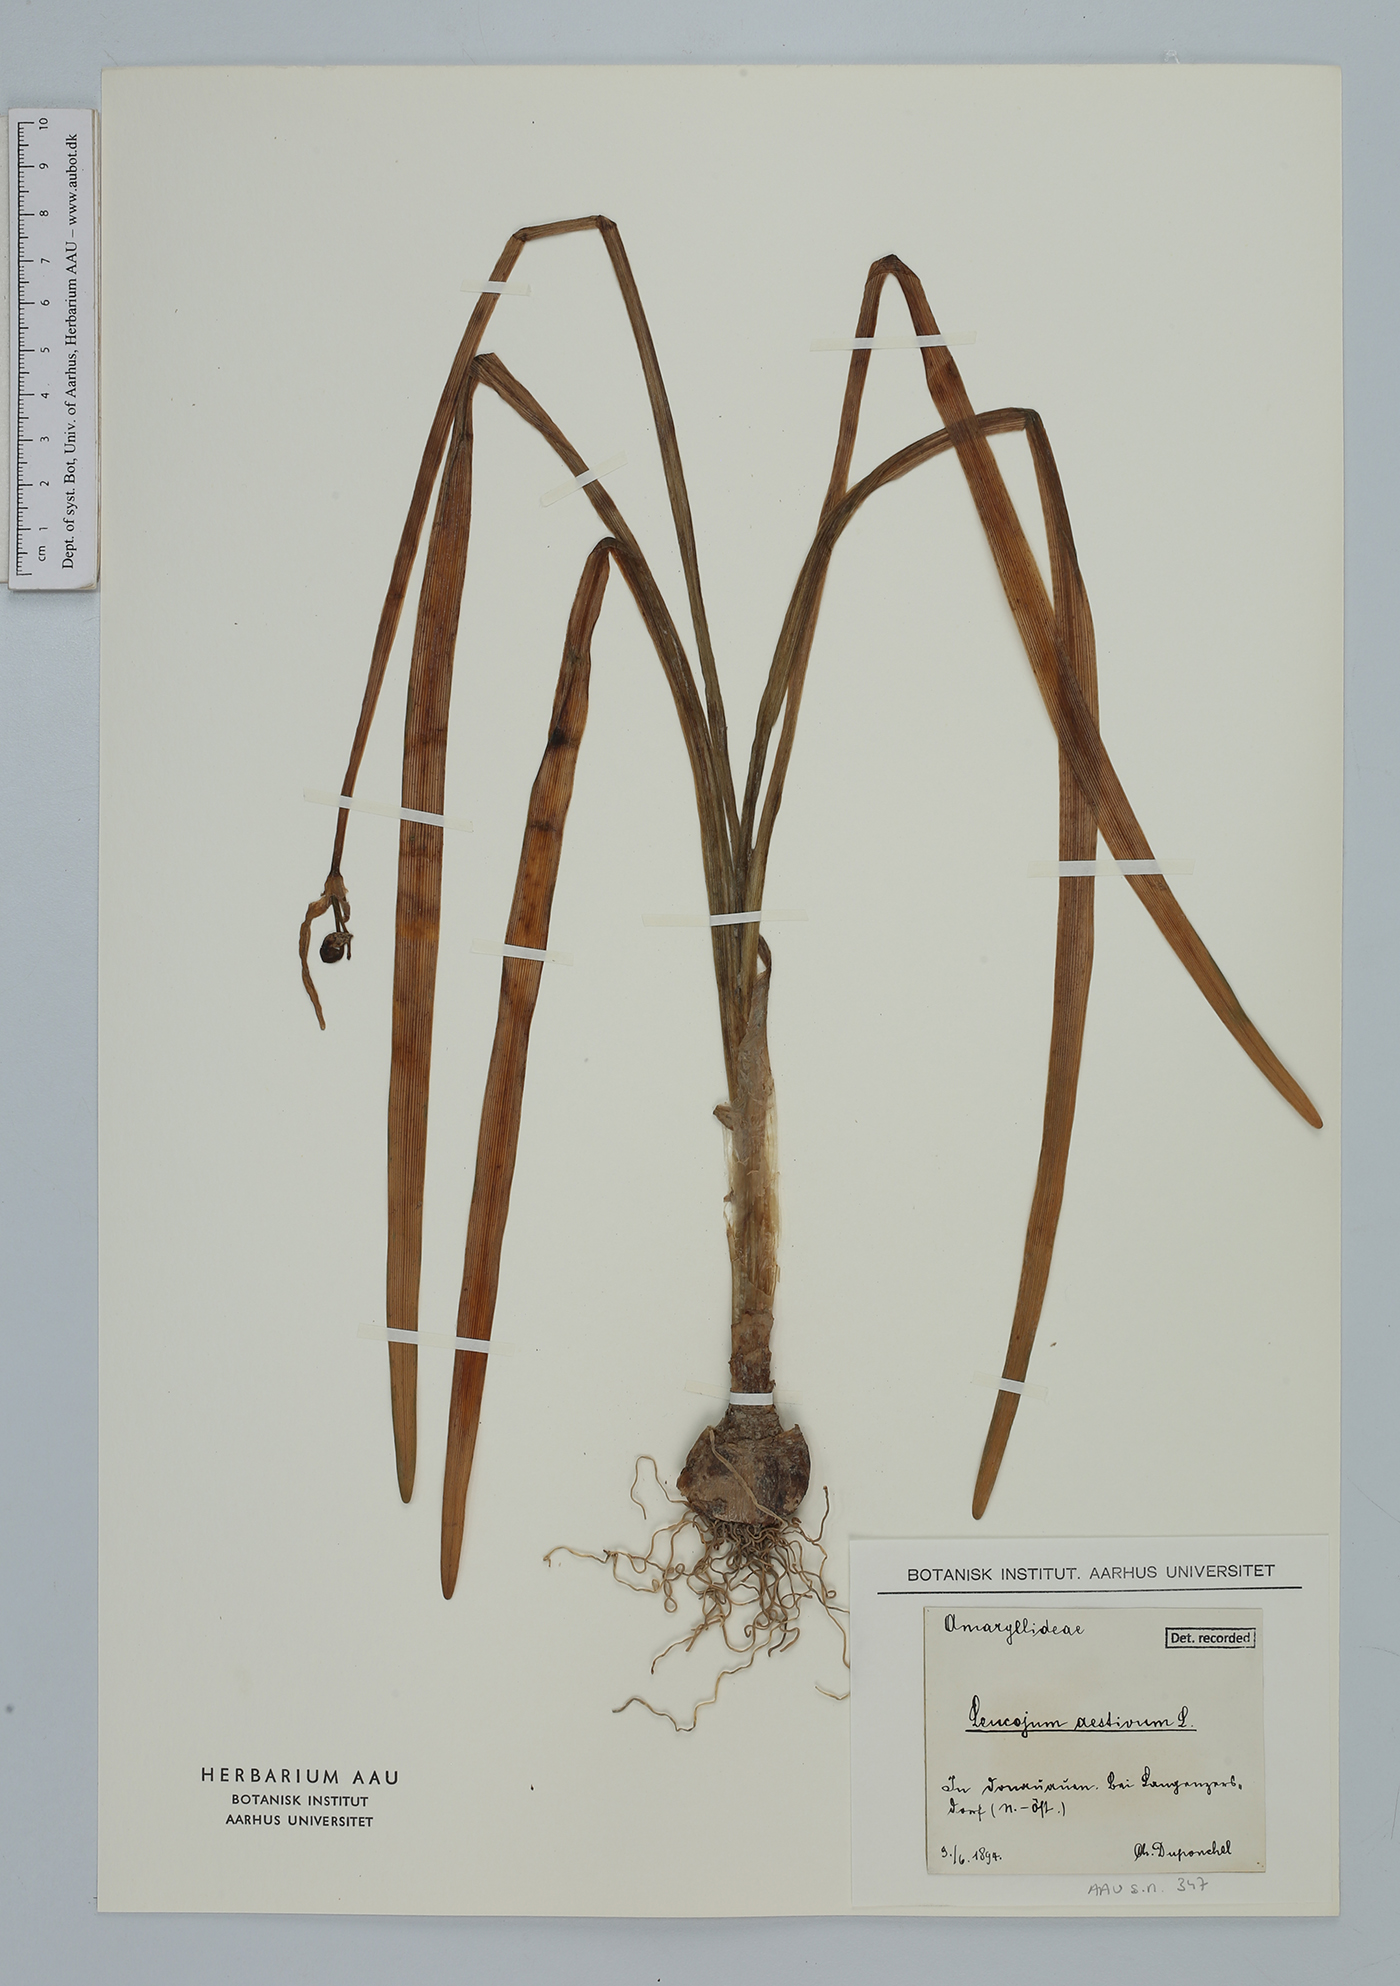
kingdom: Plantae
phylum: Tracheophyta
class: Liliopsida
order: Asparagales
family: Amaryllidaceae
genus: Leucojum
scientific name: Leucojum aestivum
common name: Summer snowflake
